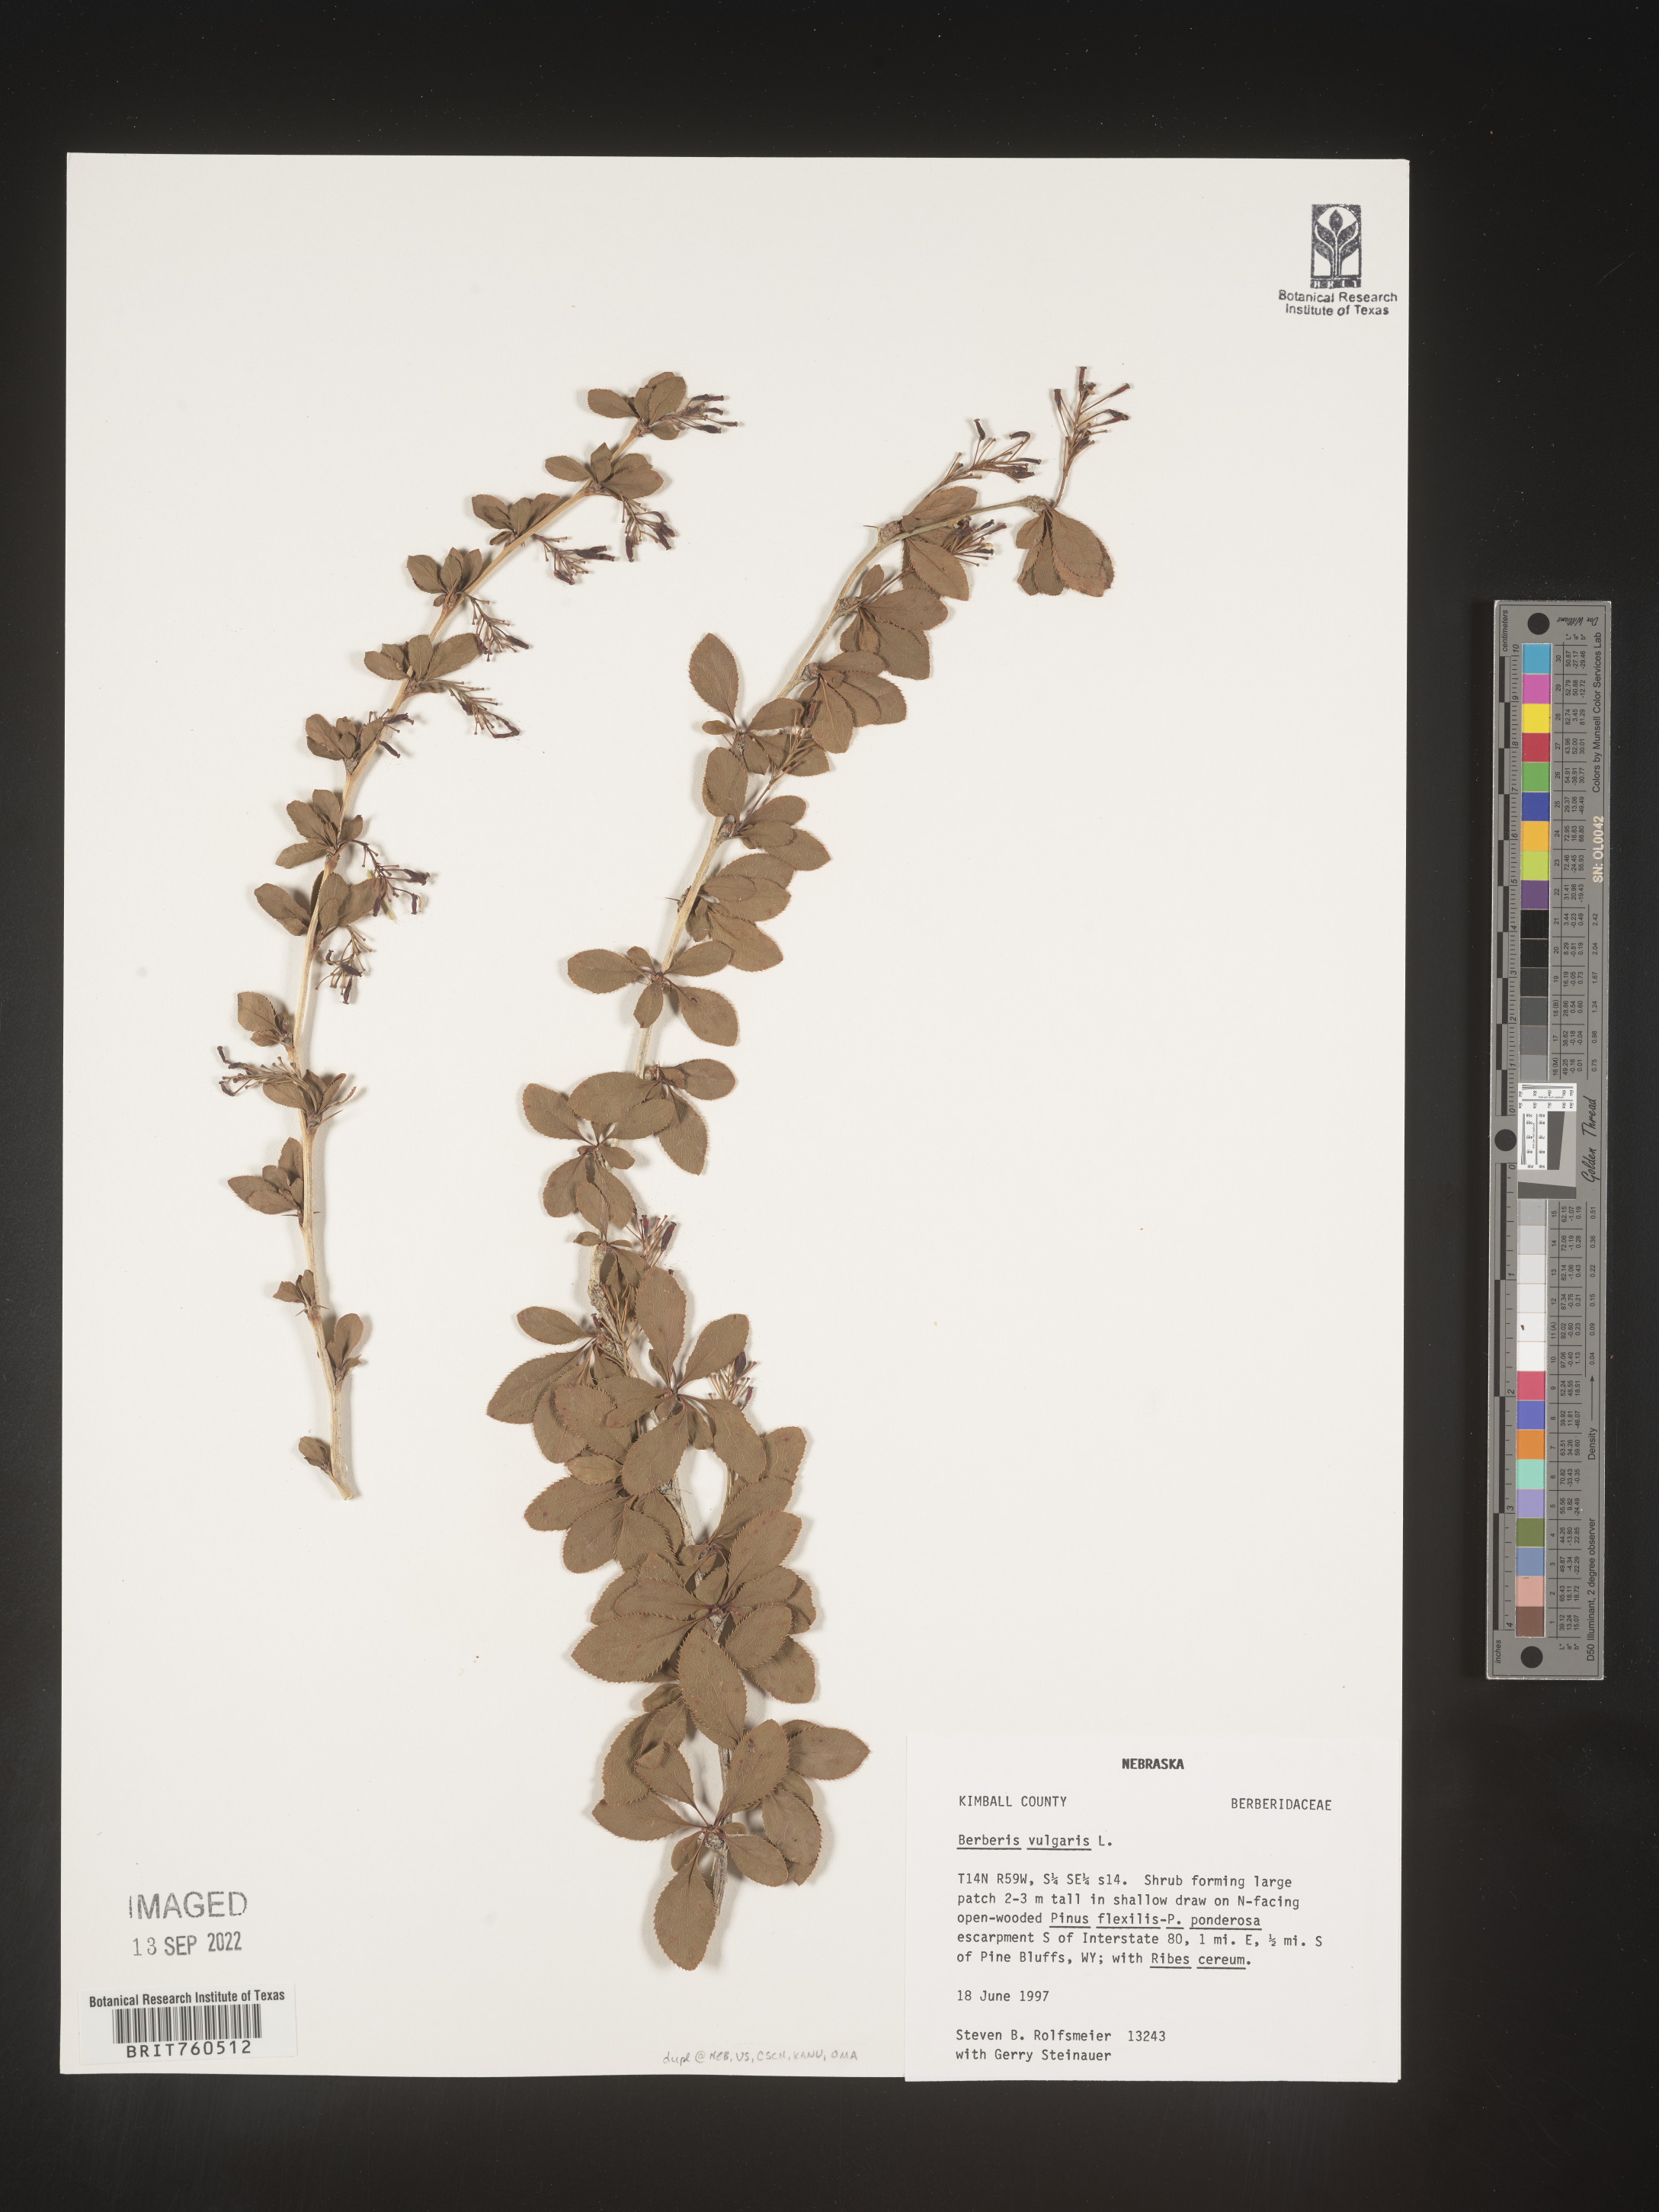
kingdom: Plantae
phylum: Tracheophyta
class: Magnoliopsida
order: Ranunculales
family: Berberidaceae
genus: Berberis
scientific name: Berberis
